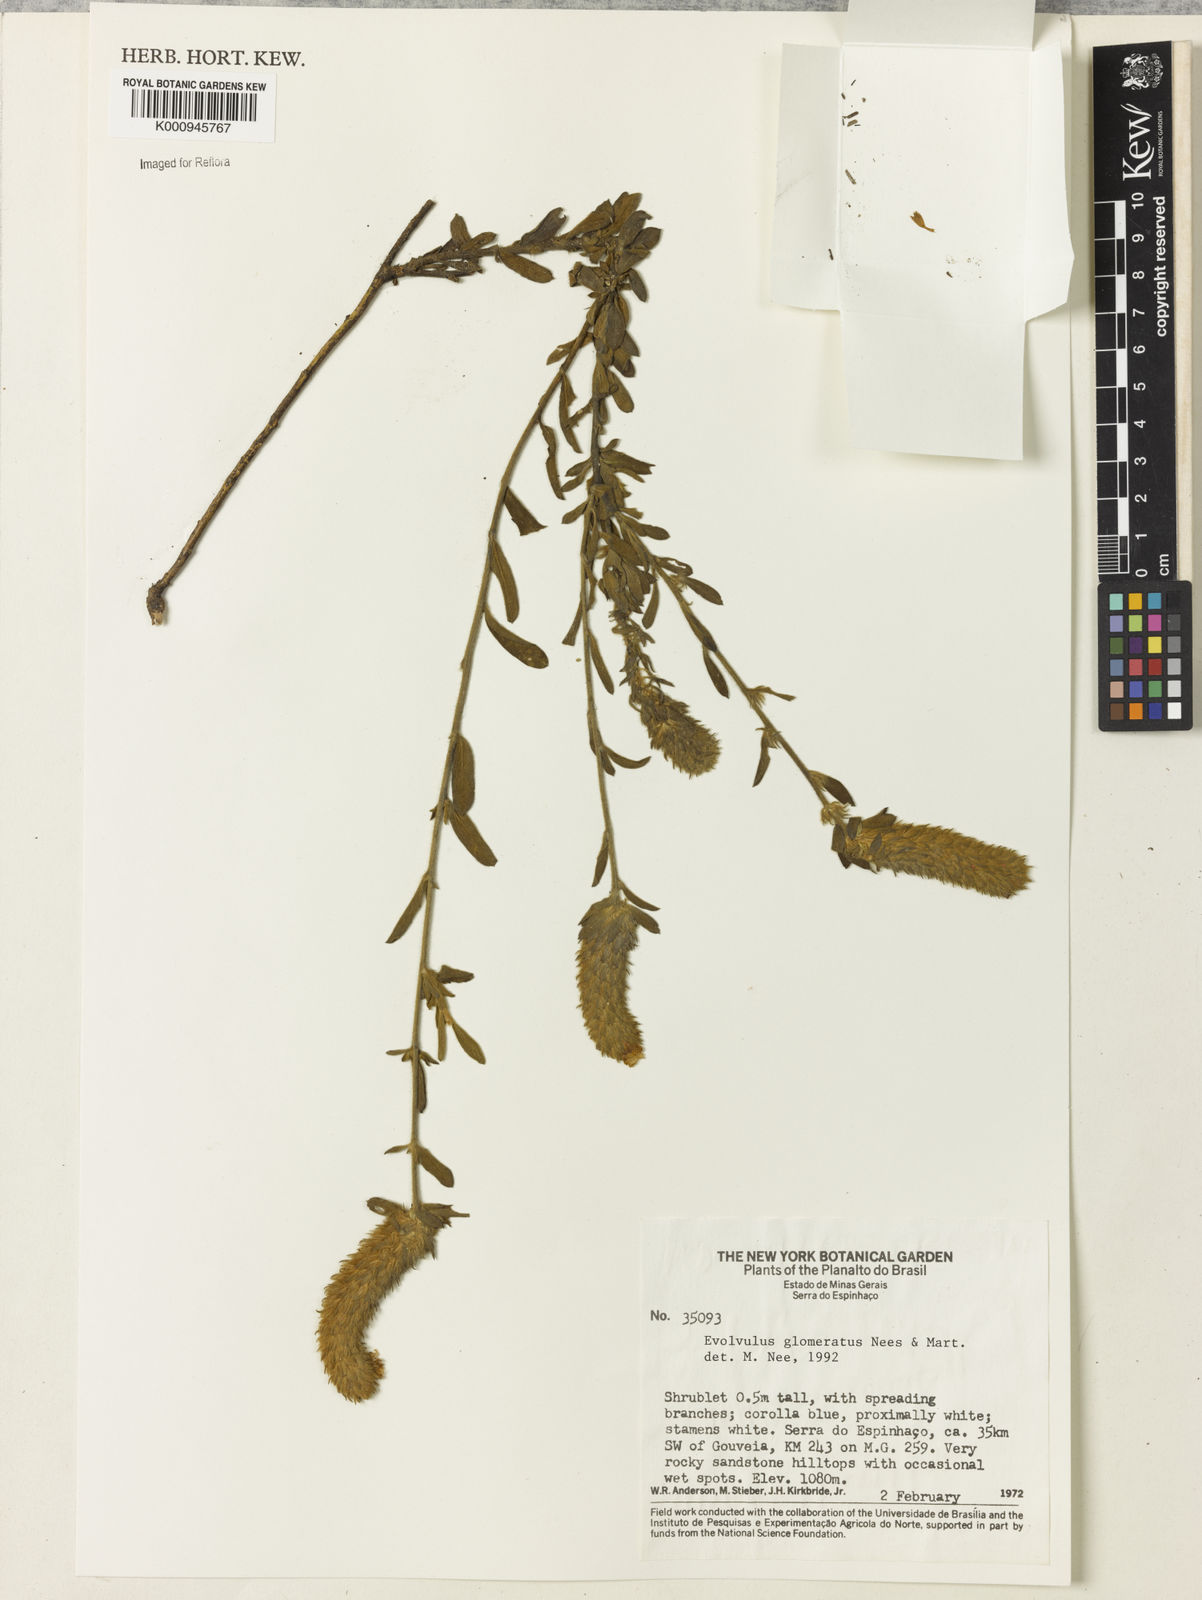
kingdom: Plantae
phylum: Tracheophyta
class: Magnoliopsida
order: Solanales
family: Convolvulaceae
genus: Evolvulus
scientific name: Evolvulus glomeratus
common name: Brazilian dwarf morning-glory
